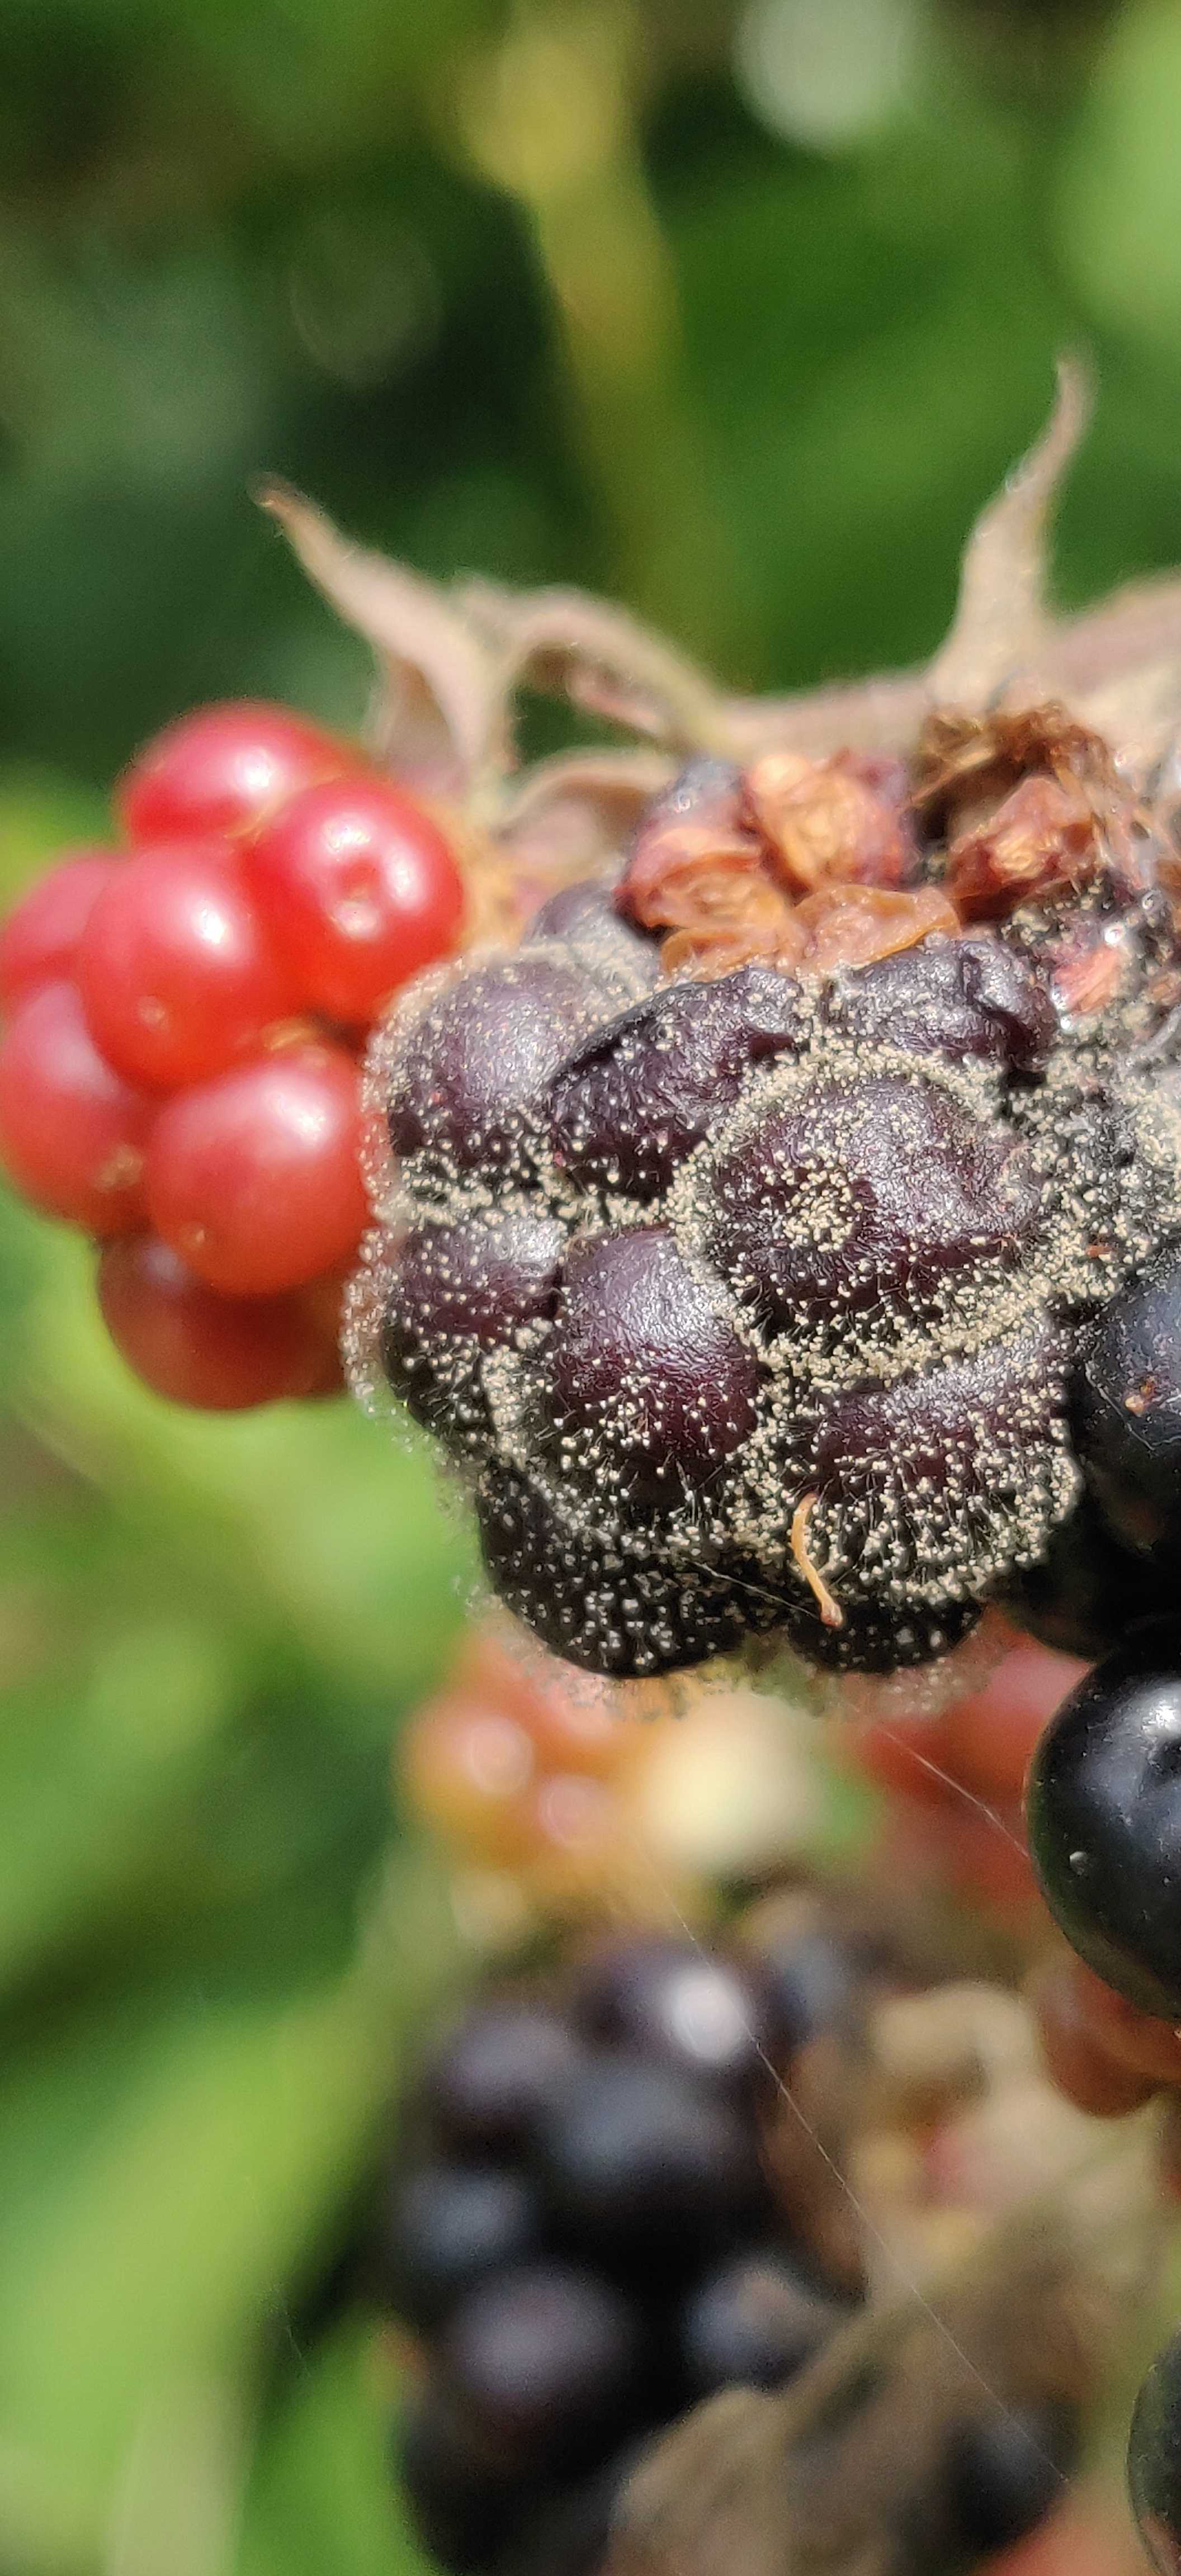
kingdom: Fungi
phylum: Ascomycota
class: Leotiomycetes
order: Helotiales
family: Sclerotiniaceae
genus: Botrytis
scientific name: Botrytis cinerea
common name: Grey mould
